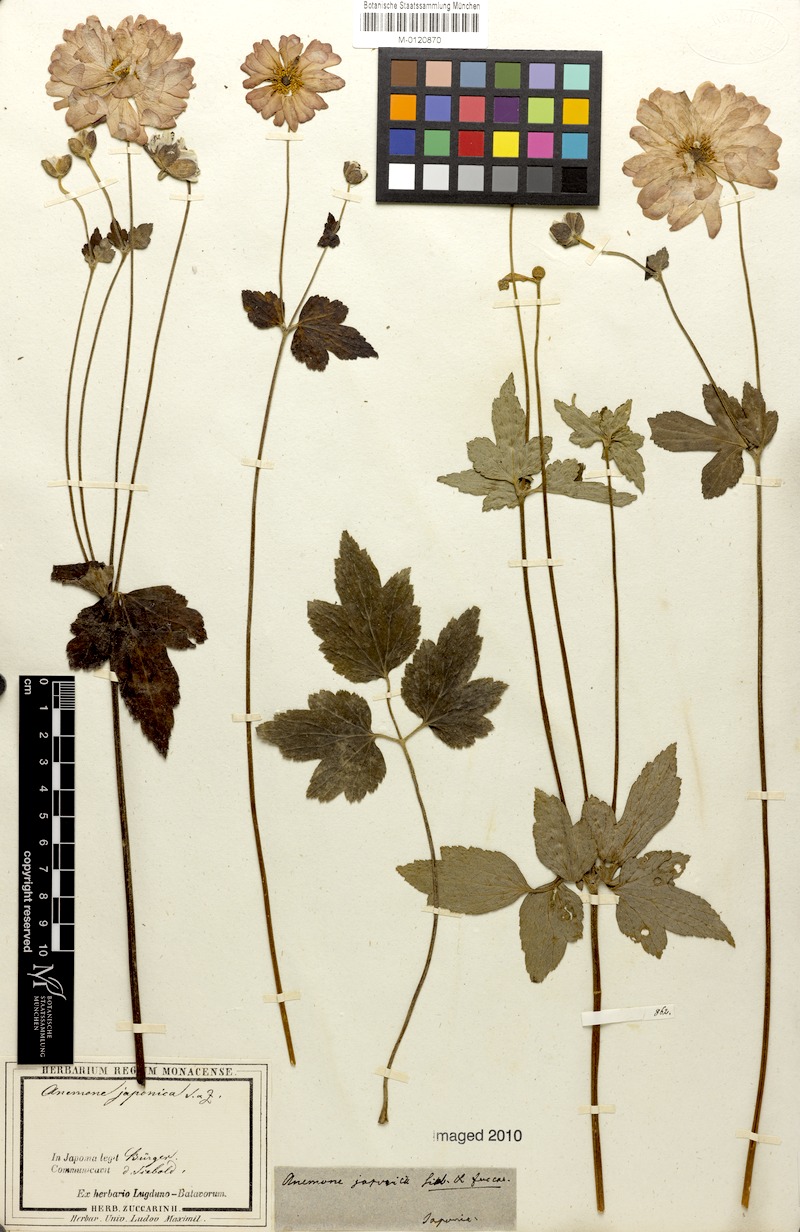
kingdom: Plantae
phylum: Tracheophyta
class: Magnoliopsida
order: Ranunculales
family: Ranunculaceae
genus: Eriocapitella
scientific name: Eriocapitella japonica
